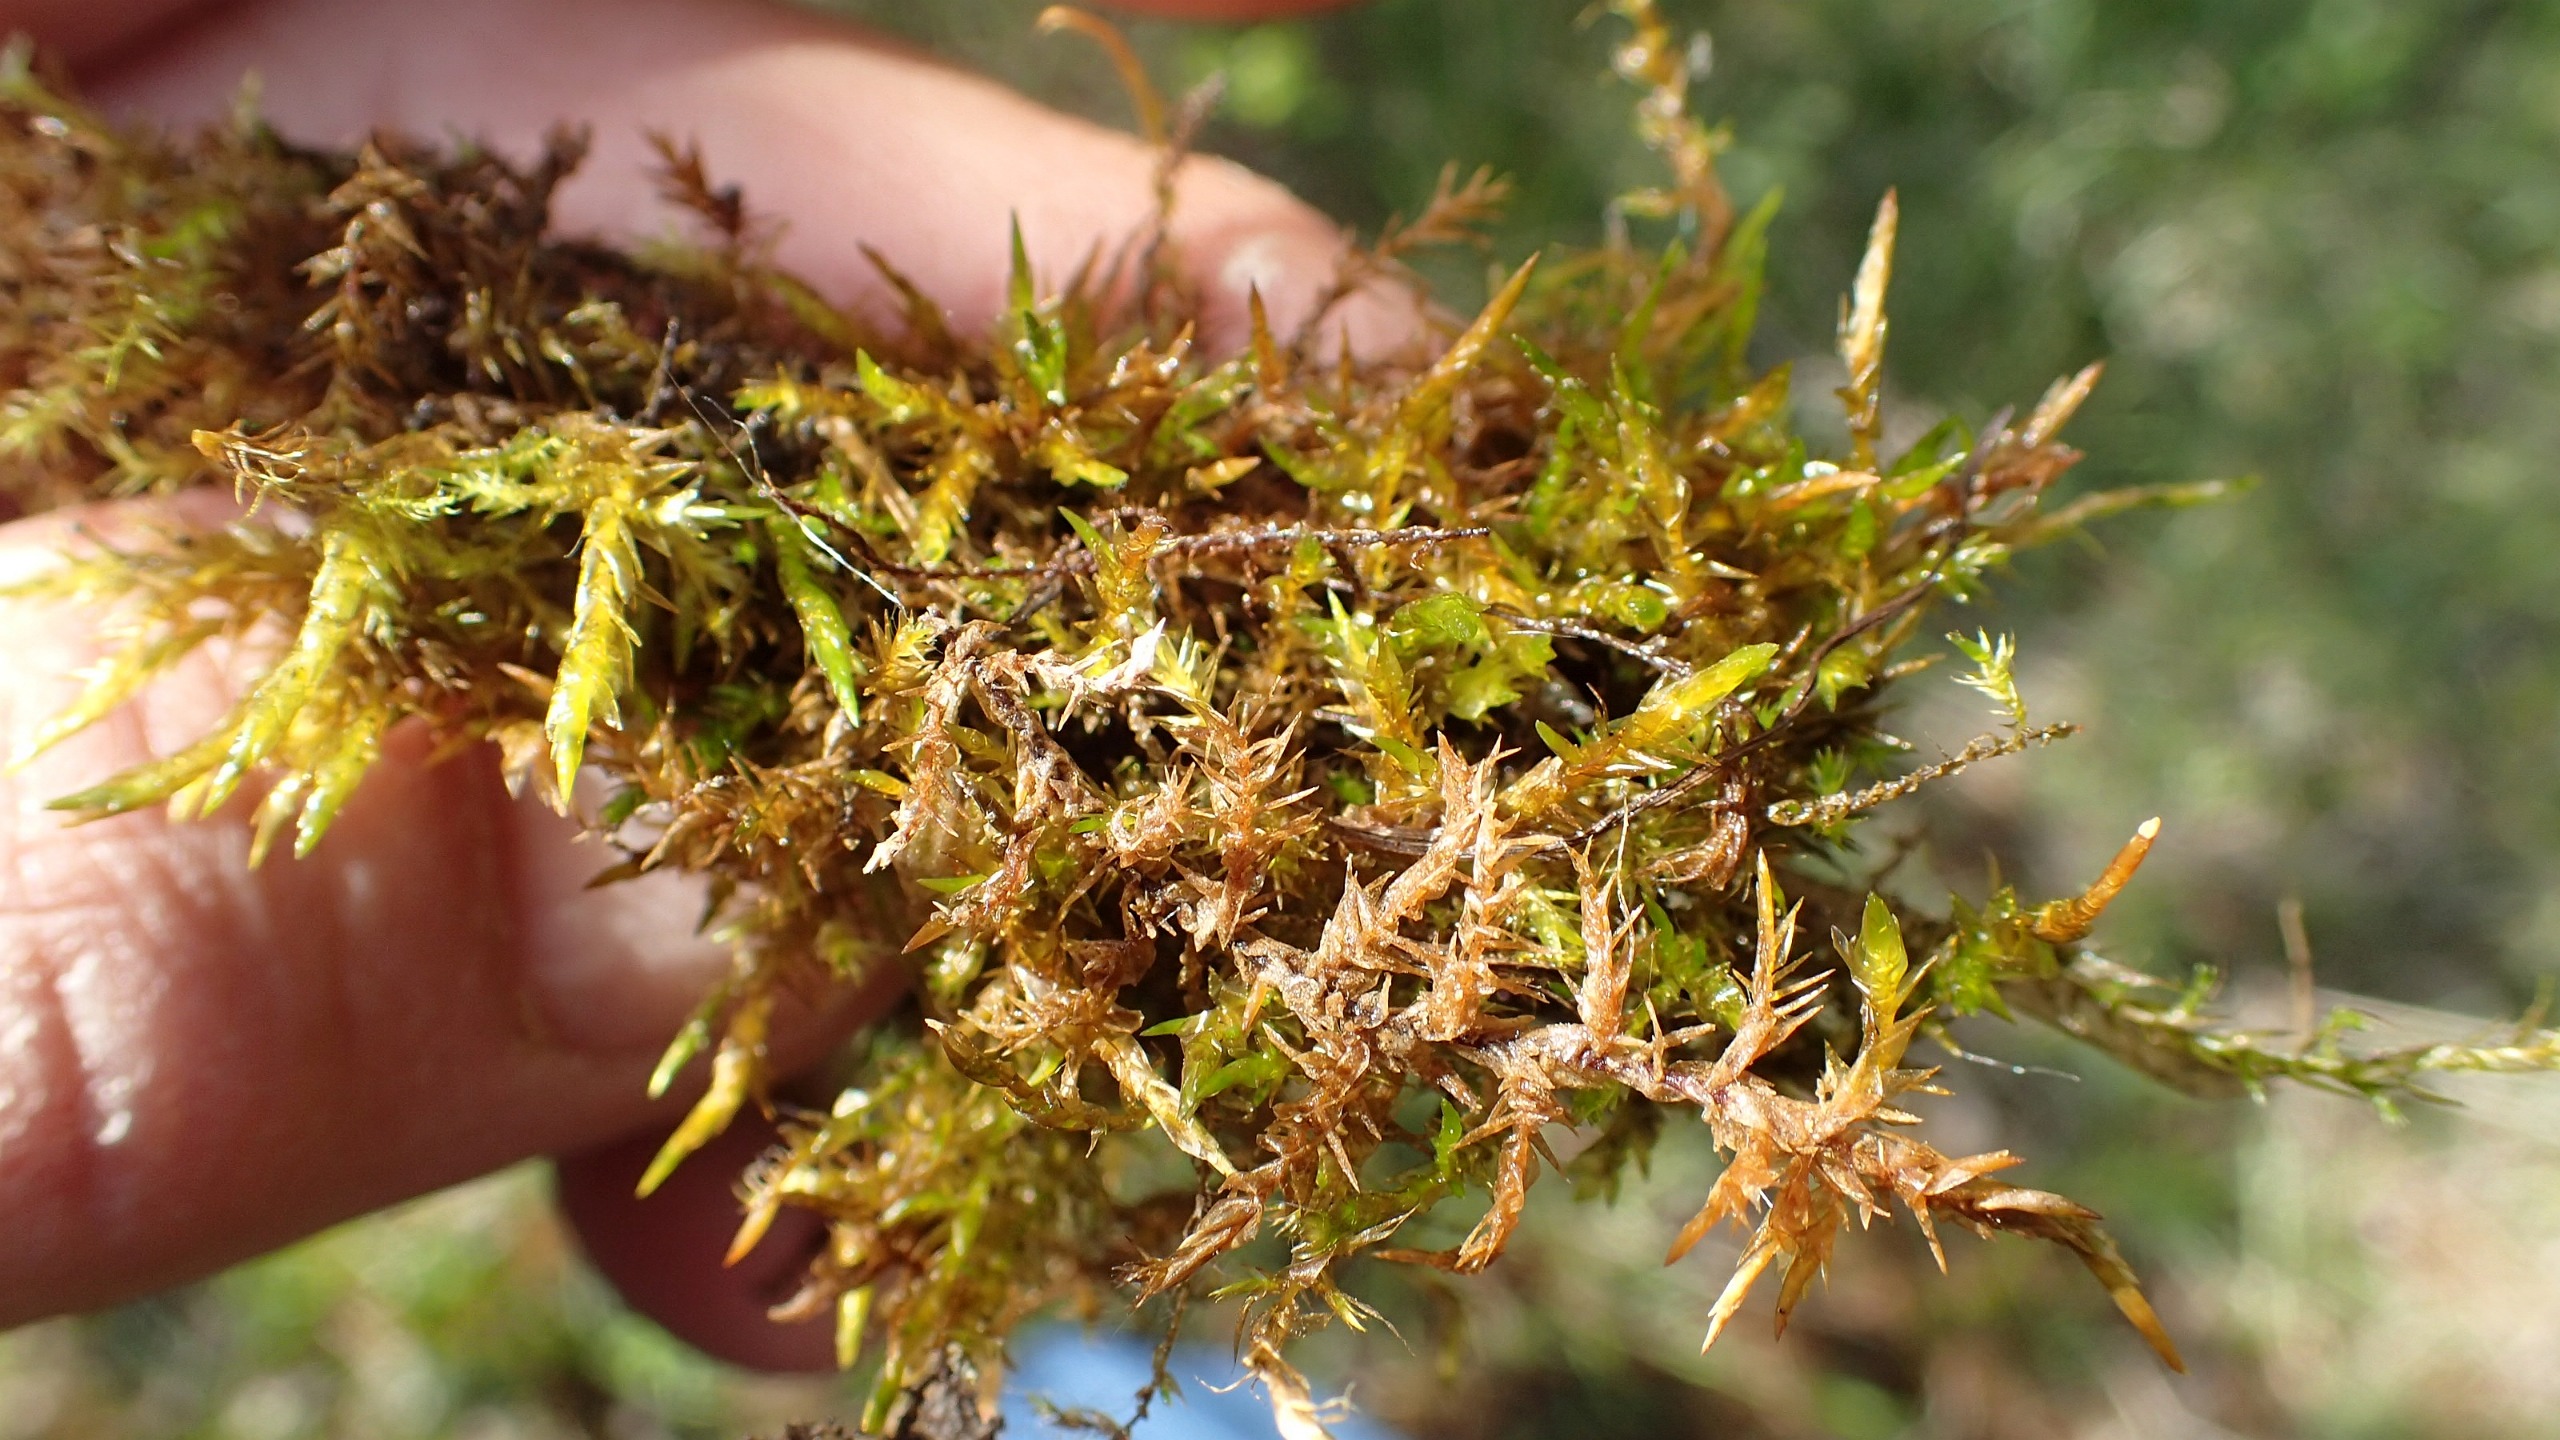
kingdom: Plantae
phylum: Bryophyta
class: Bryopsida
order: Hypnales
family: Pylaisiaceae
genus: Calliergonella
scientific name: Calliergonella cuspidata
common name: Spids spydmos
